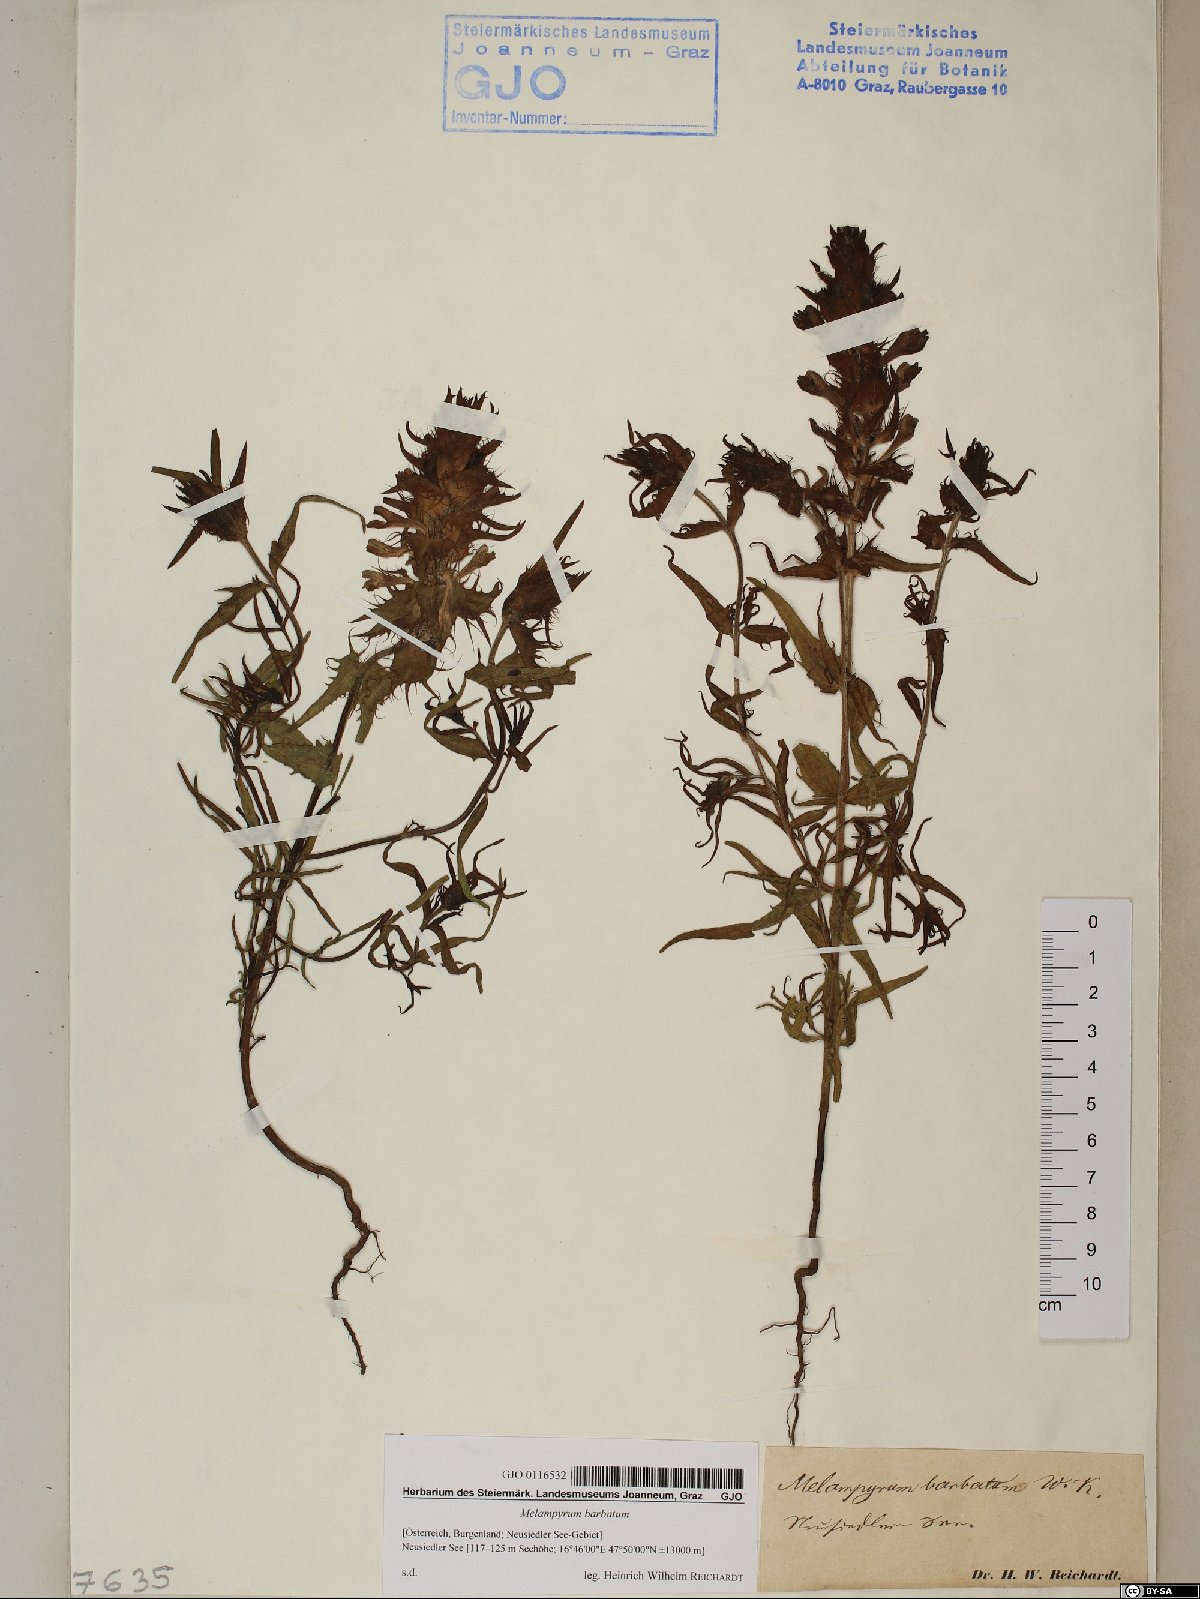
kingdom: Plantae
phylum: Tracheophyta
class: Magnoliopsida
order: Lamiales
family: Orobanchaceae
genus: Melampyrum
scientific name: Melampyrum barbatum
